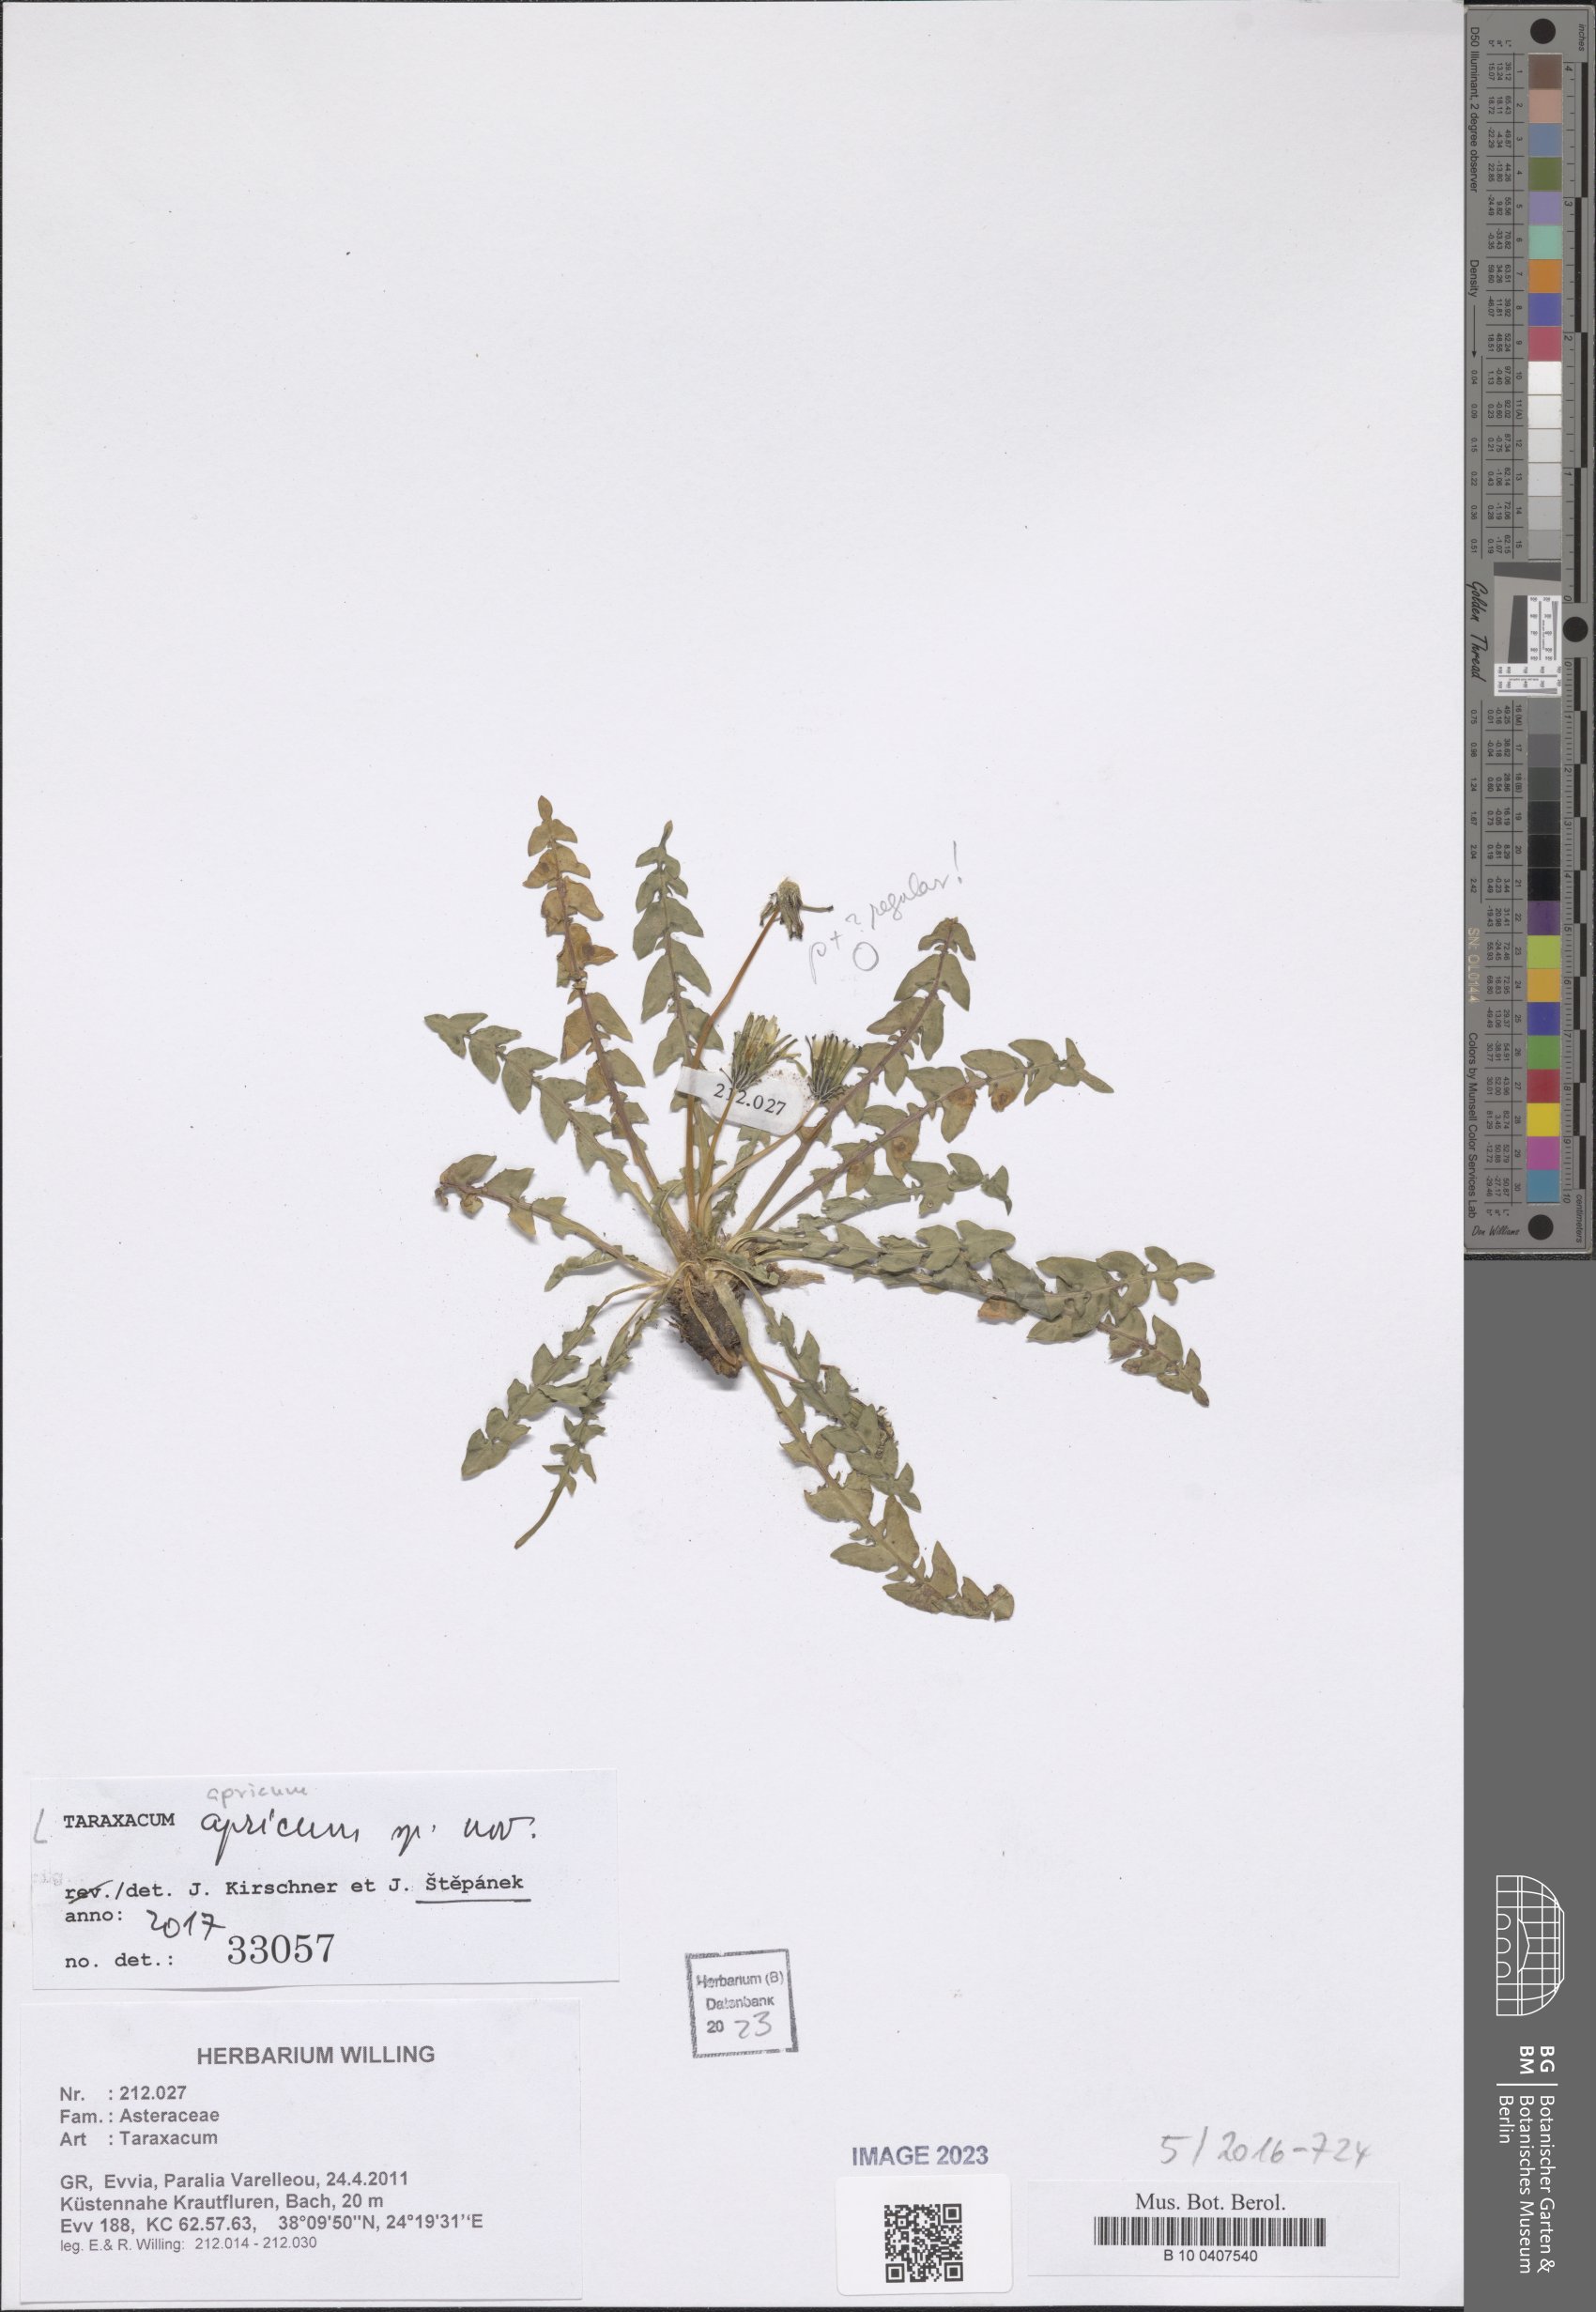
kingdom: Plantae
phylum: Tracheophyta
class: Magnoliopsida
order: Asterales
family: Asteraceae
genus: Taraxacum
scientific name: Taraxacum
